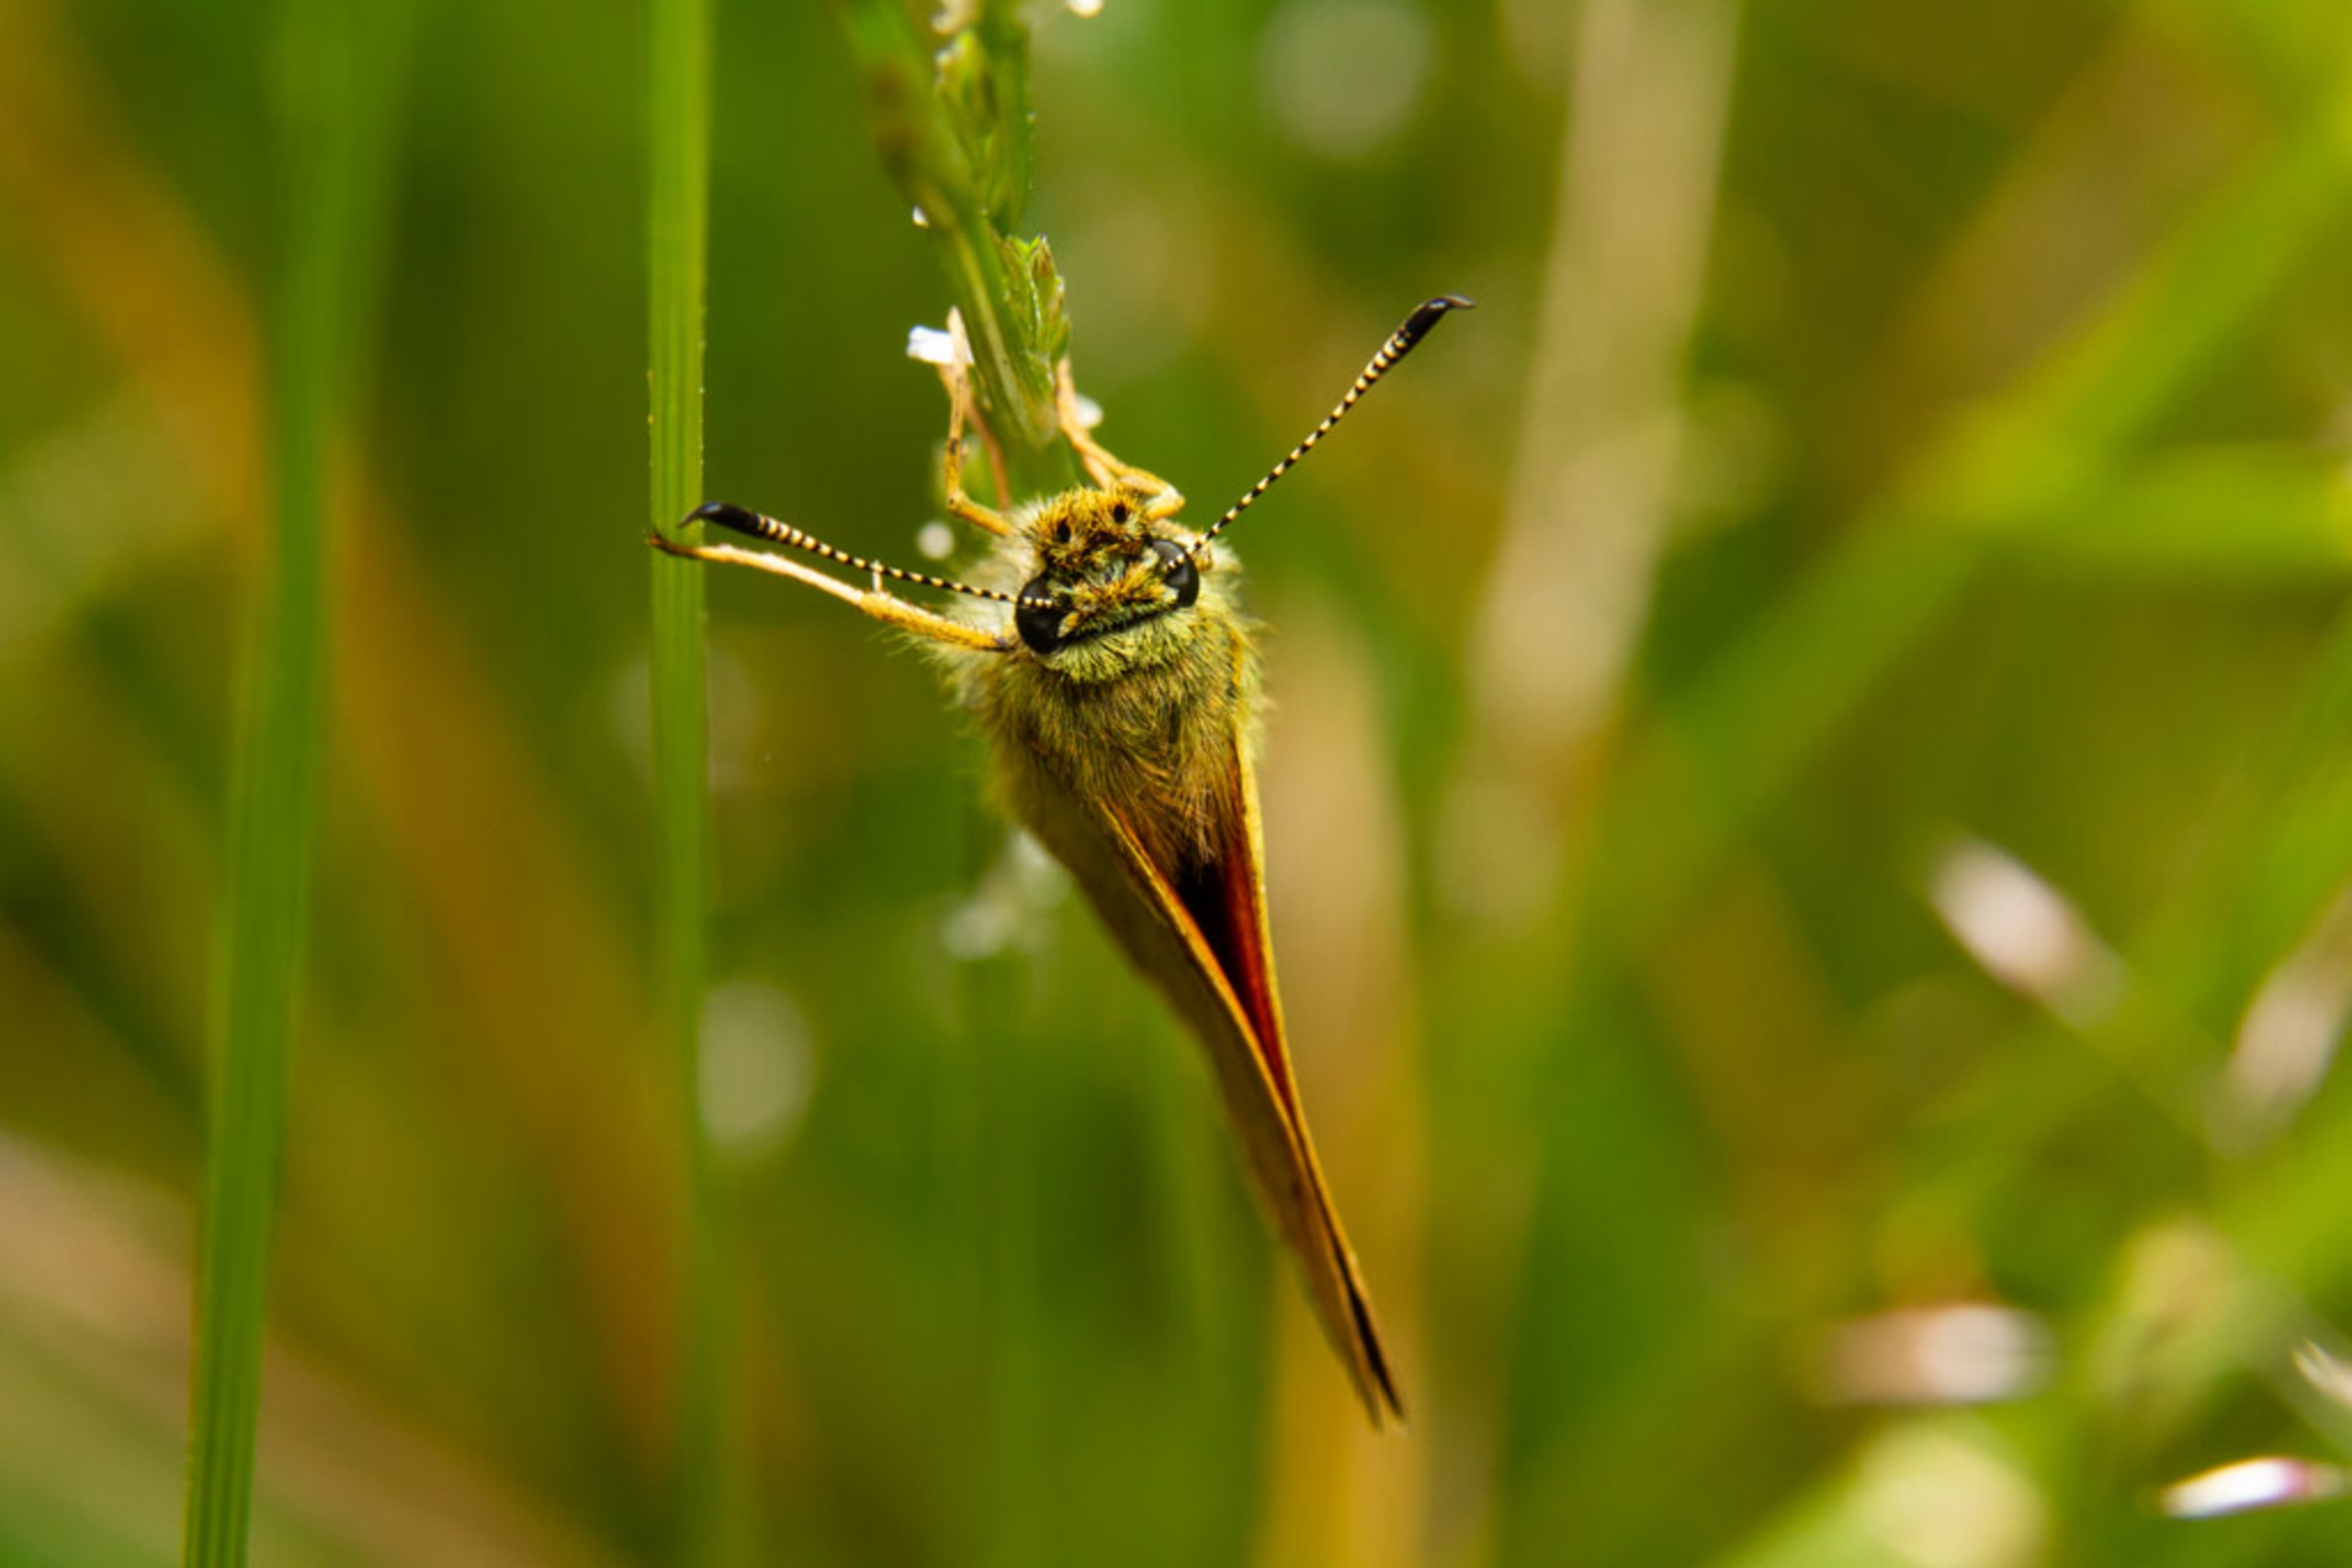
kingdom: Animalia
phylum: Arthropoda
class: Insecta
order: Lepidoptera
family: Hesperiidae
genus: Ochlodes
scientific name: Ochlodes venata
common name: Stor bredpande
